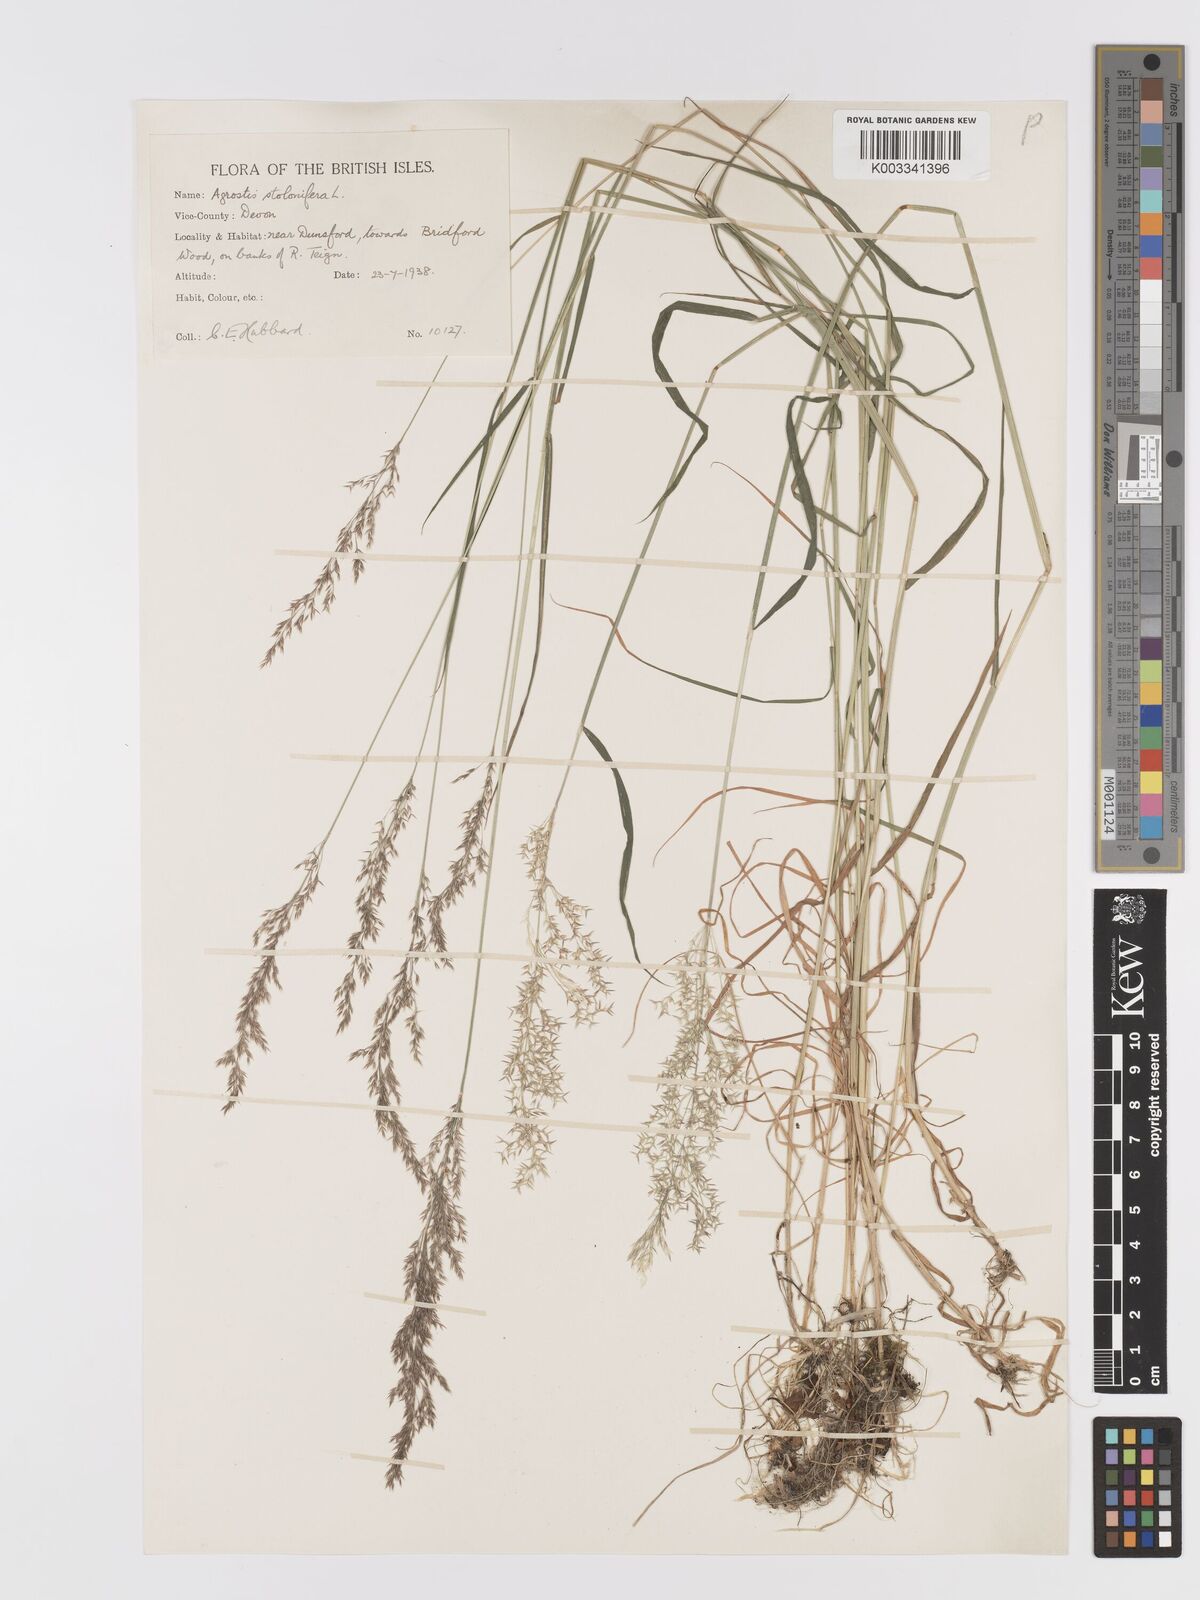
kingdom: Plantae
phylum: Tracheophyta
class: Liliopsida
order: Poales
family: Poaceae
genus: Agrostis
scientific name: Agrostis stolonifera
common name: Creeping bentgrass
